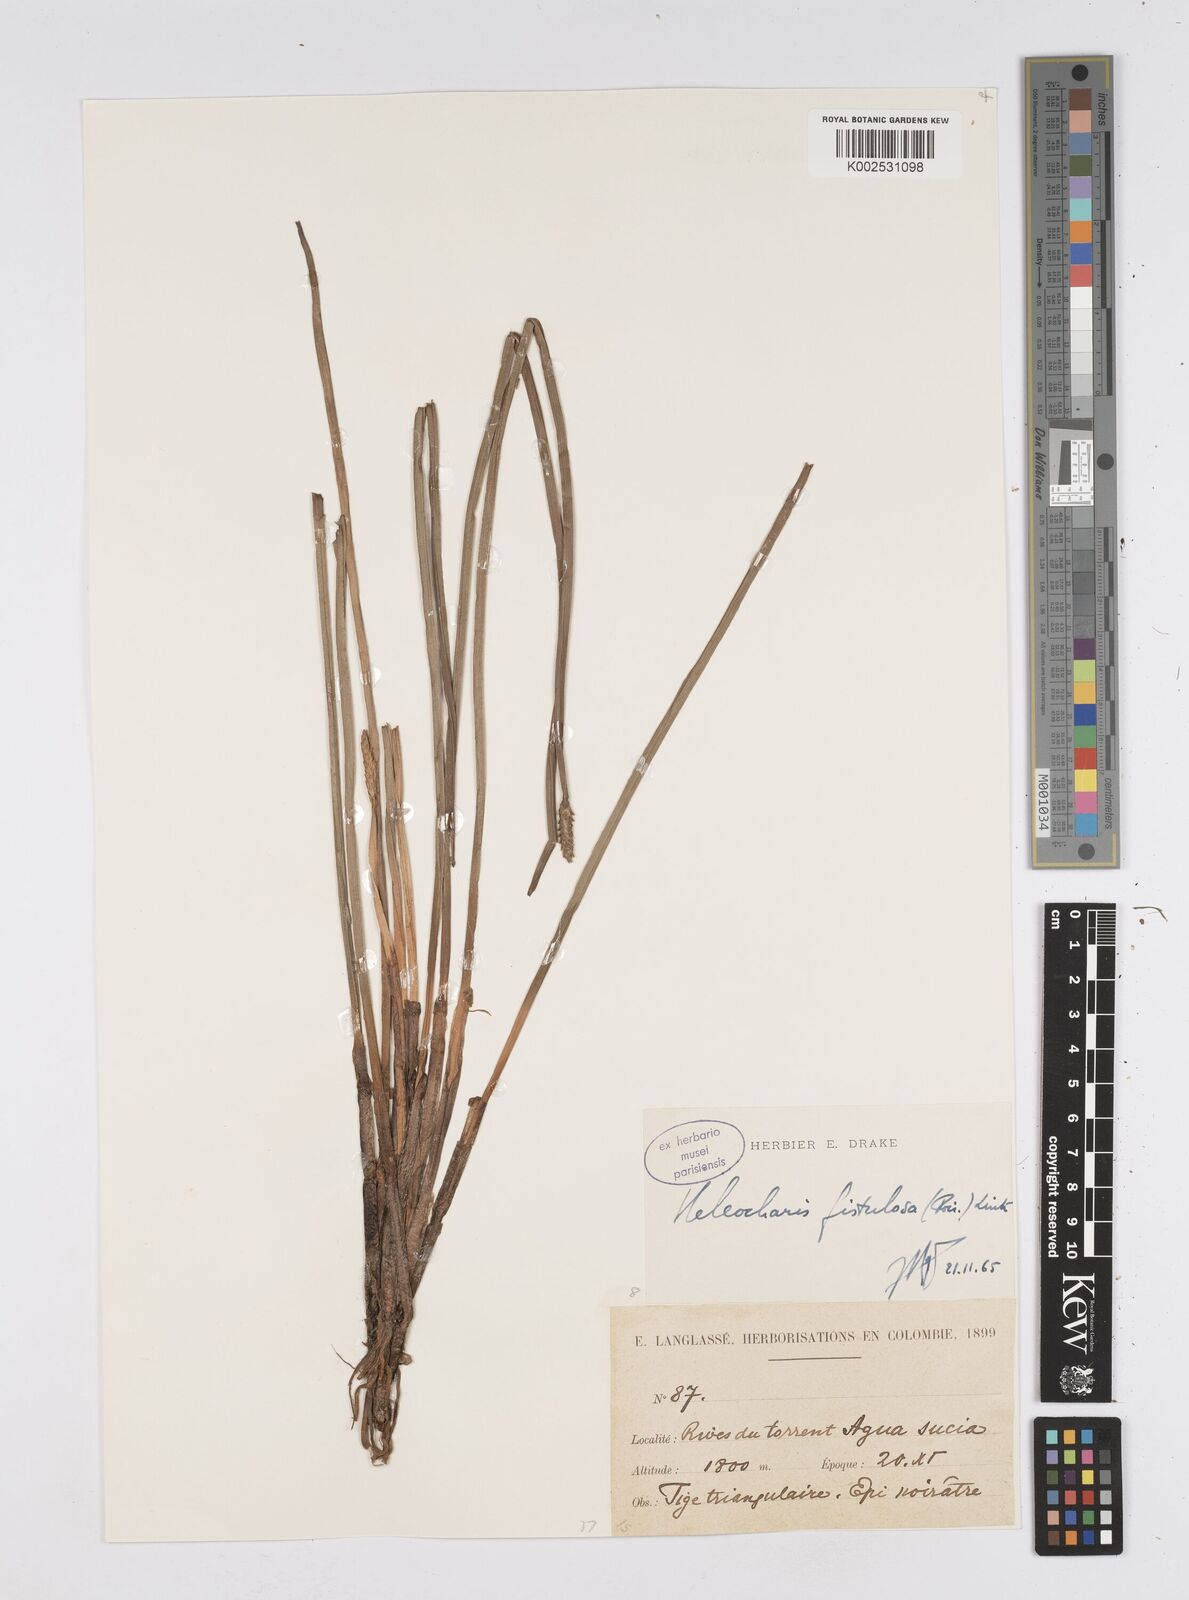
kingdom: Plantae
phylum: Tracheophyta
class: Liliopsida
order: Poales
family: Cyperaceae
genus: Eleocharis
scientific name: Eleocharis acutangula
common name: Acute spikerush
